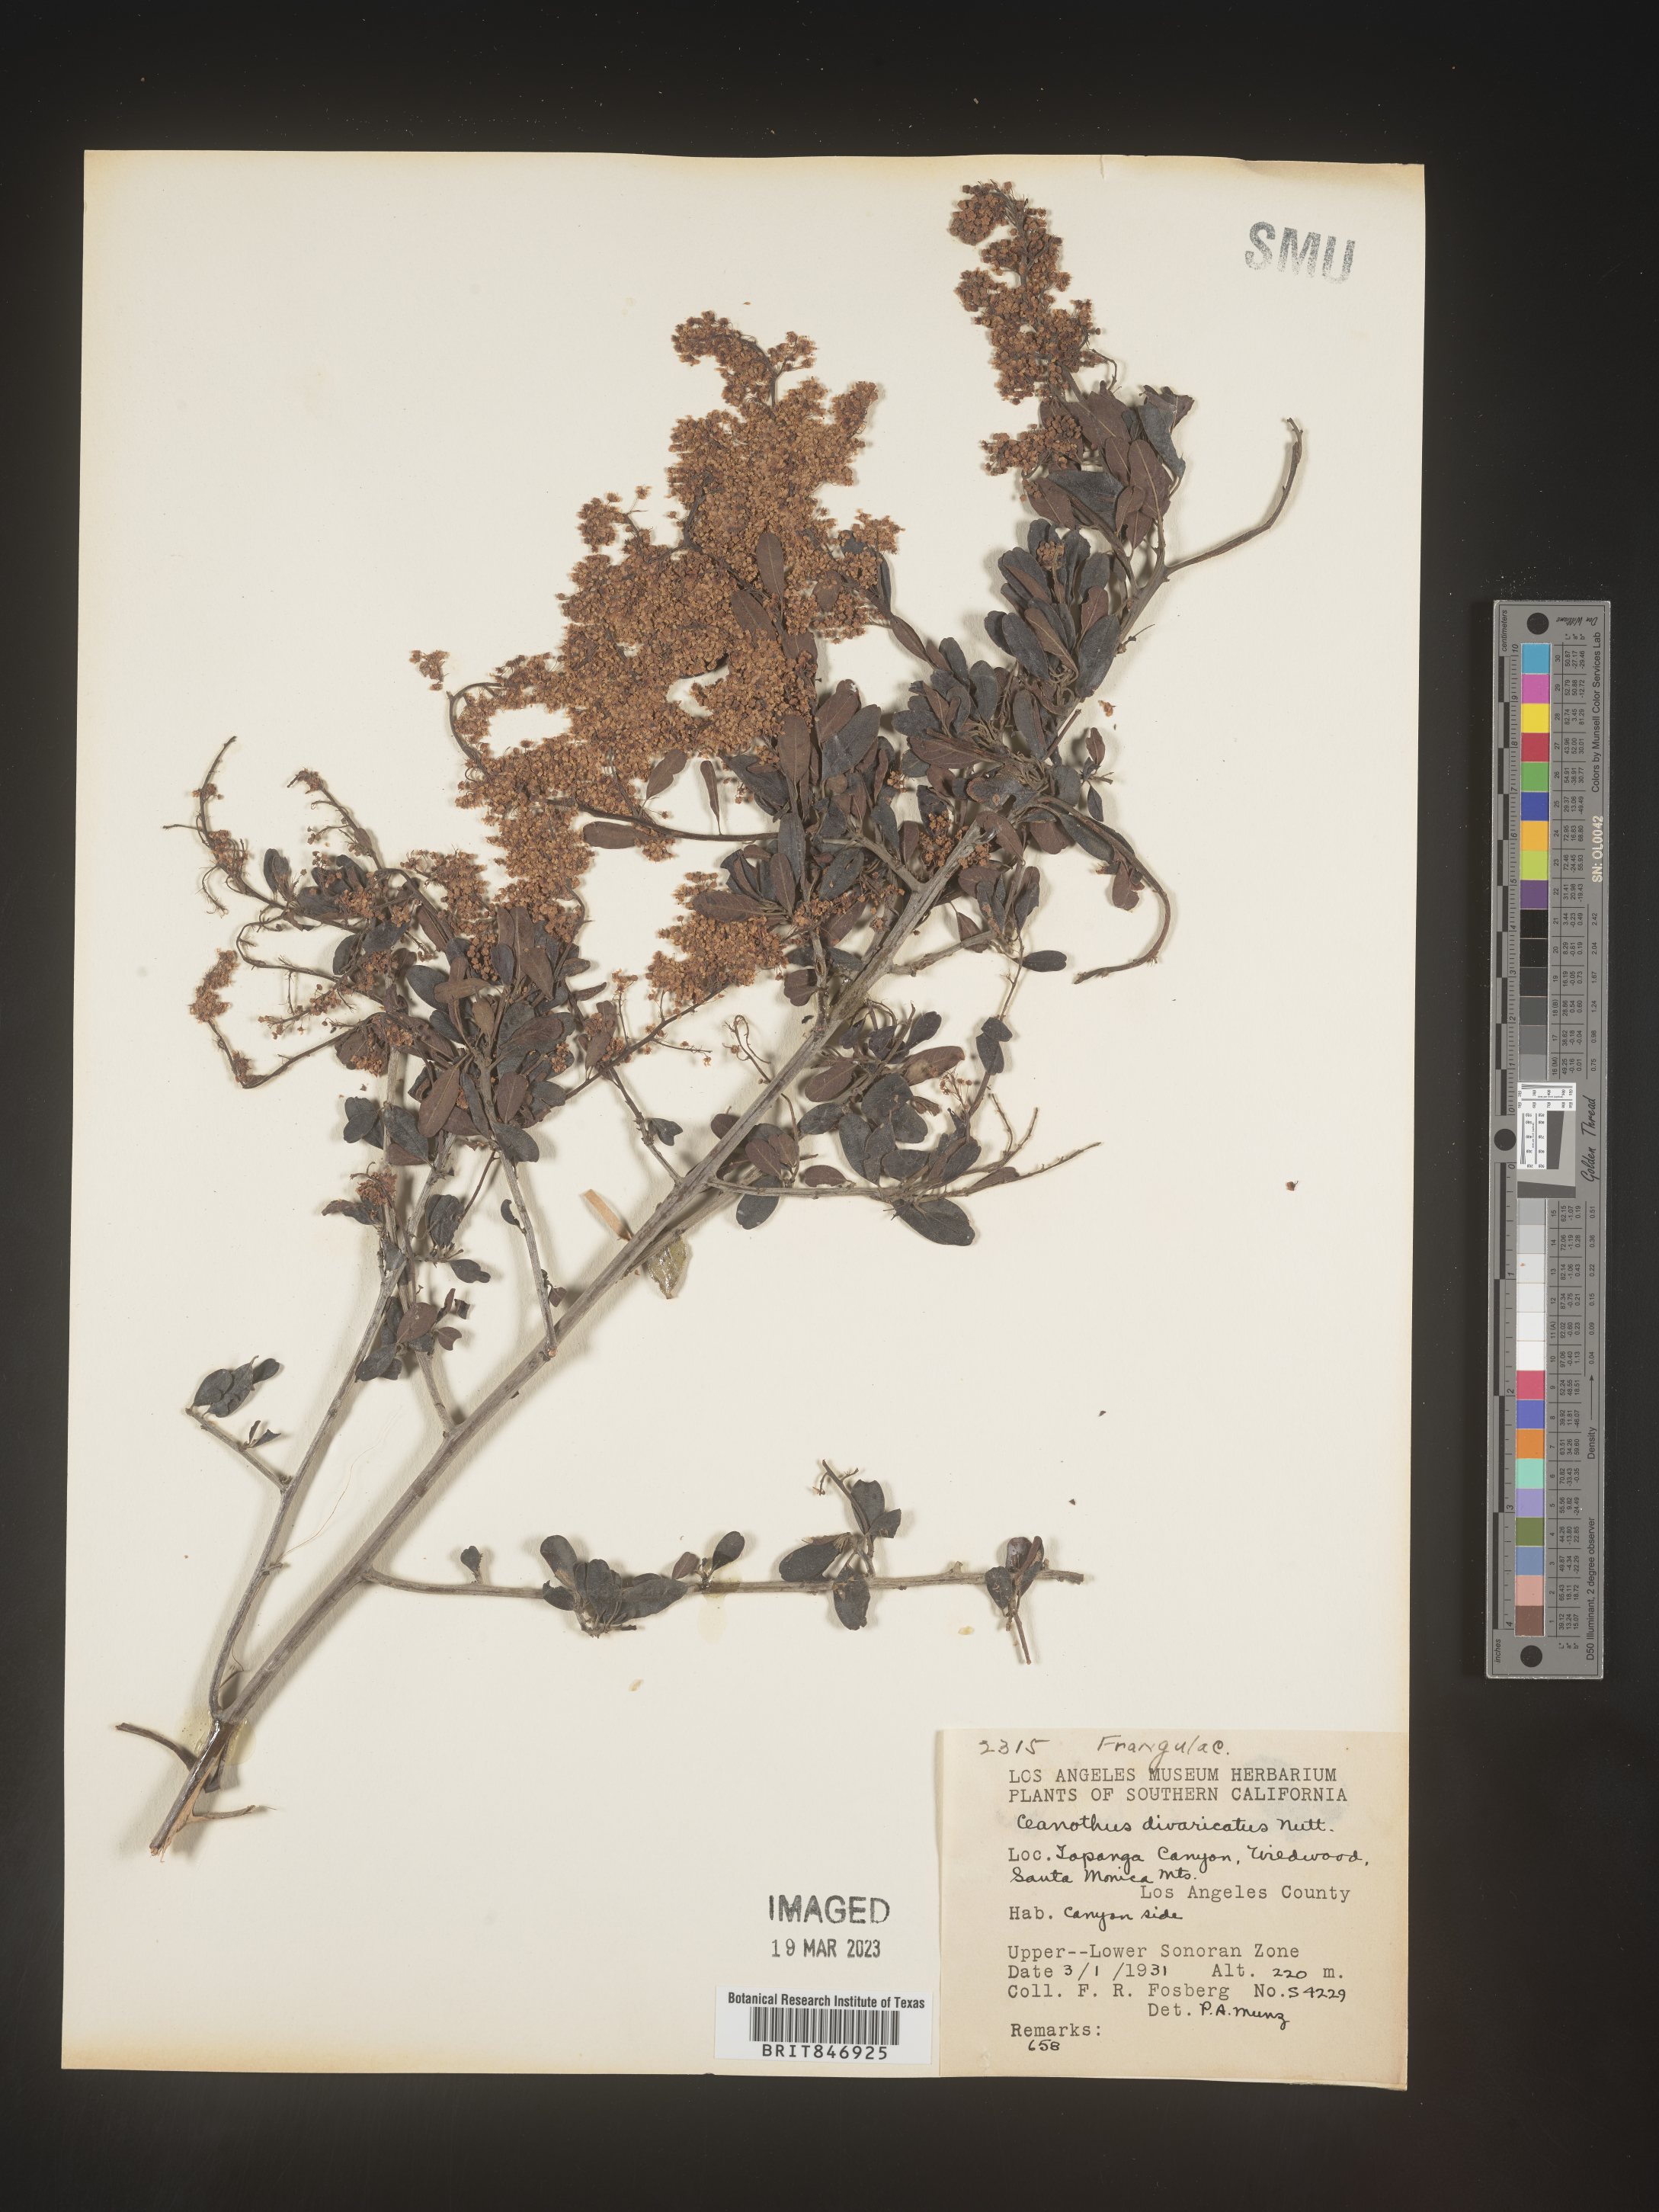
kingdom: Plantae
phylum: Tracheophyta
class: Magnoliopsida
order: Rosales
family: Rhamnaceae
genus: Ceanothus
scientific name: Ceanothus
